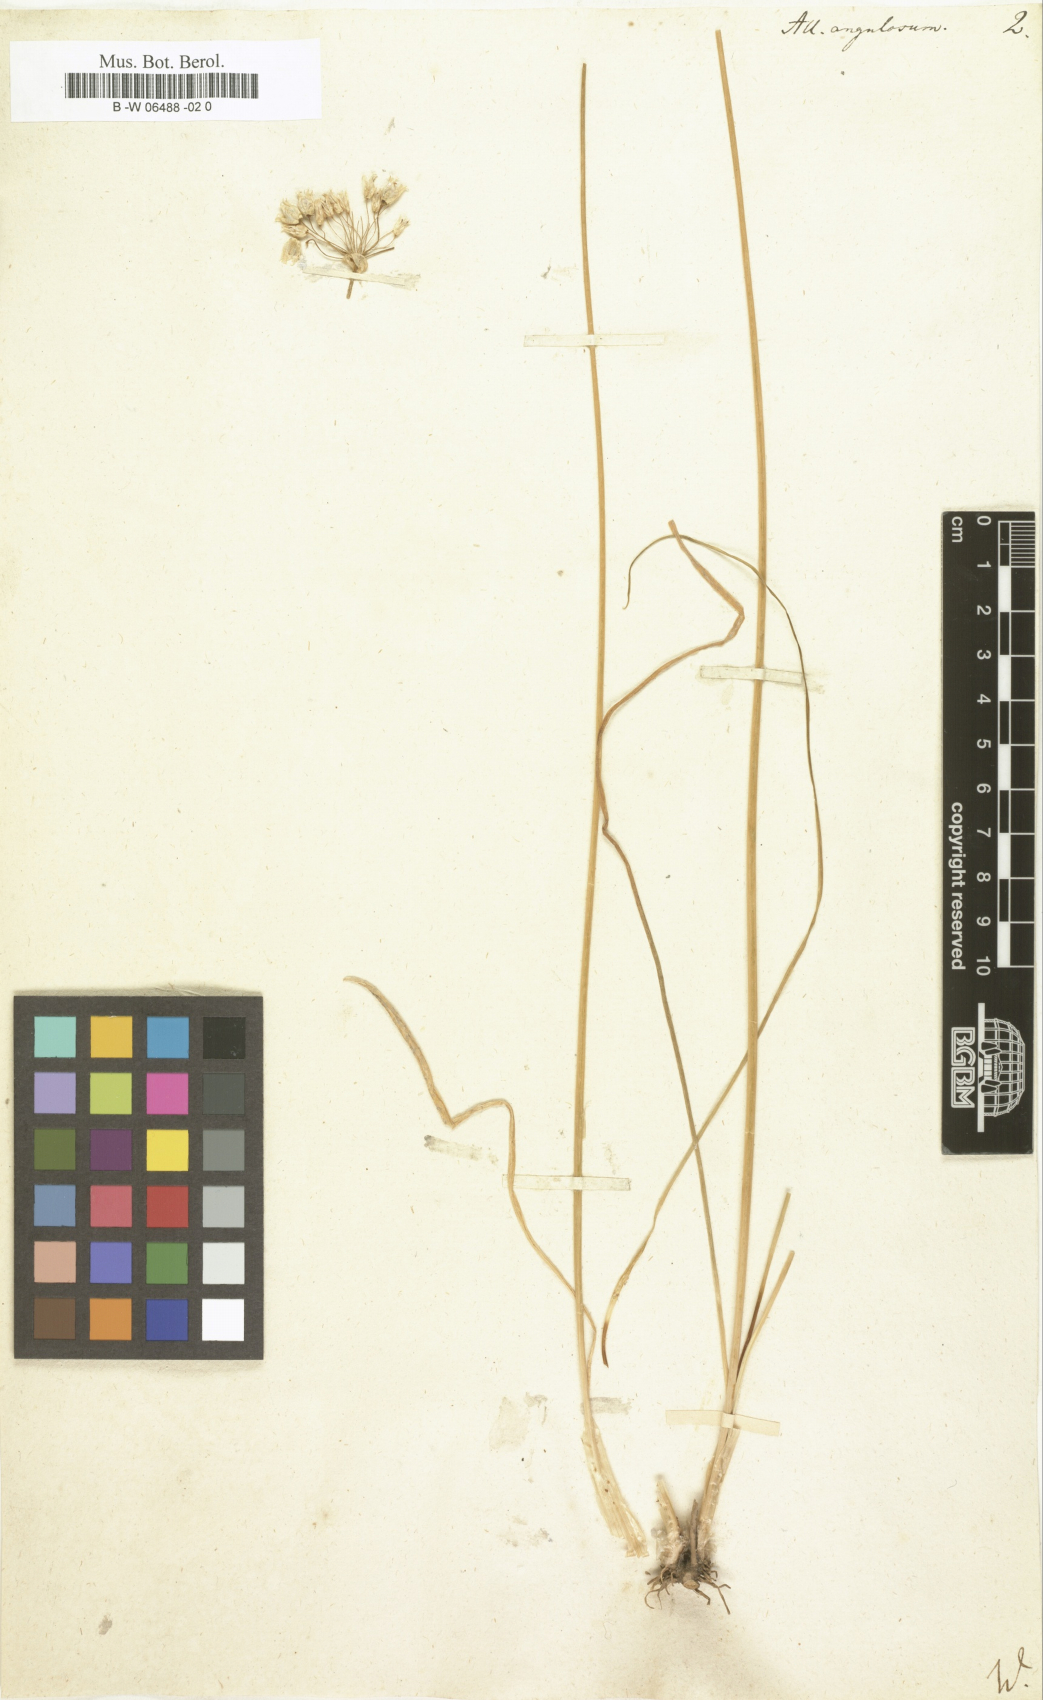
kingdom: Plantae
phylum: Tracheophyta
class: Liliopsida
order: Asparagales
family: Amaryllidaceae
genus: Allium
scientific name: Allium angulosum
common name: Mouse garlic
